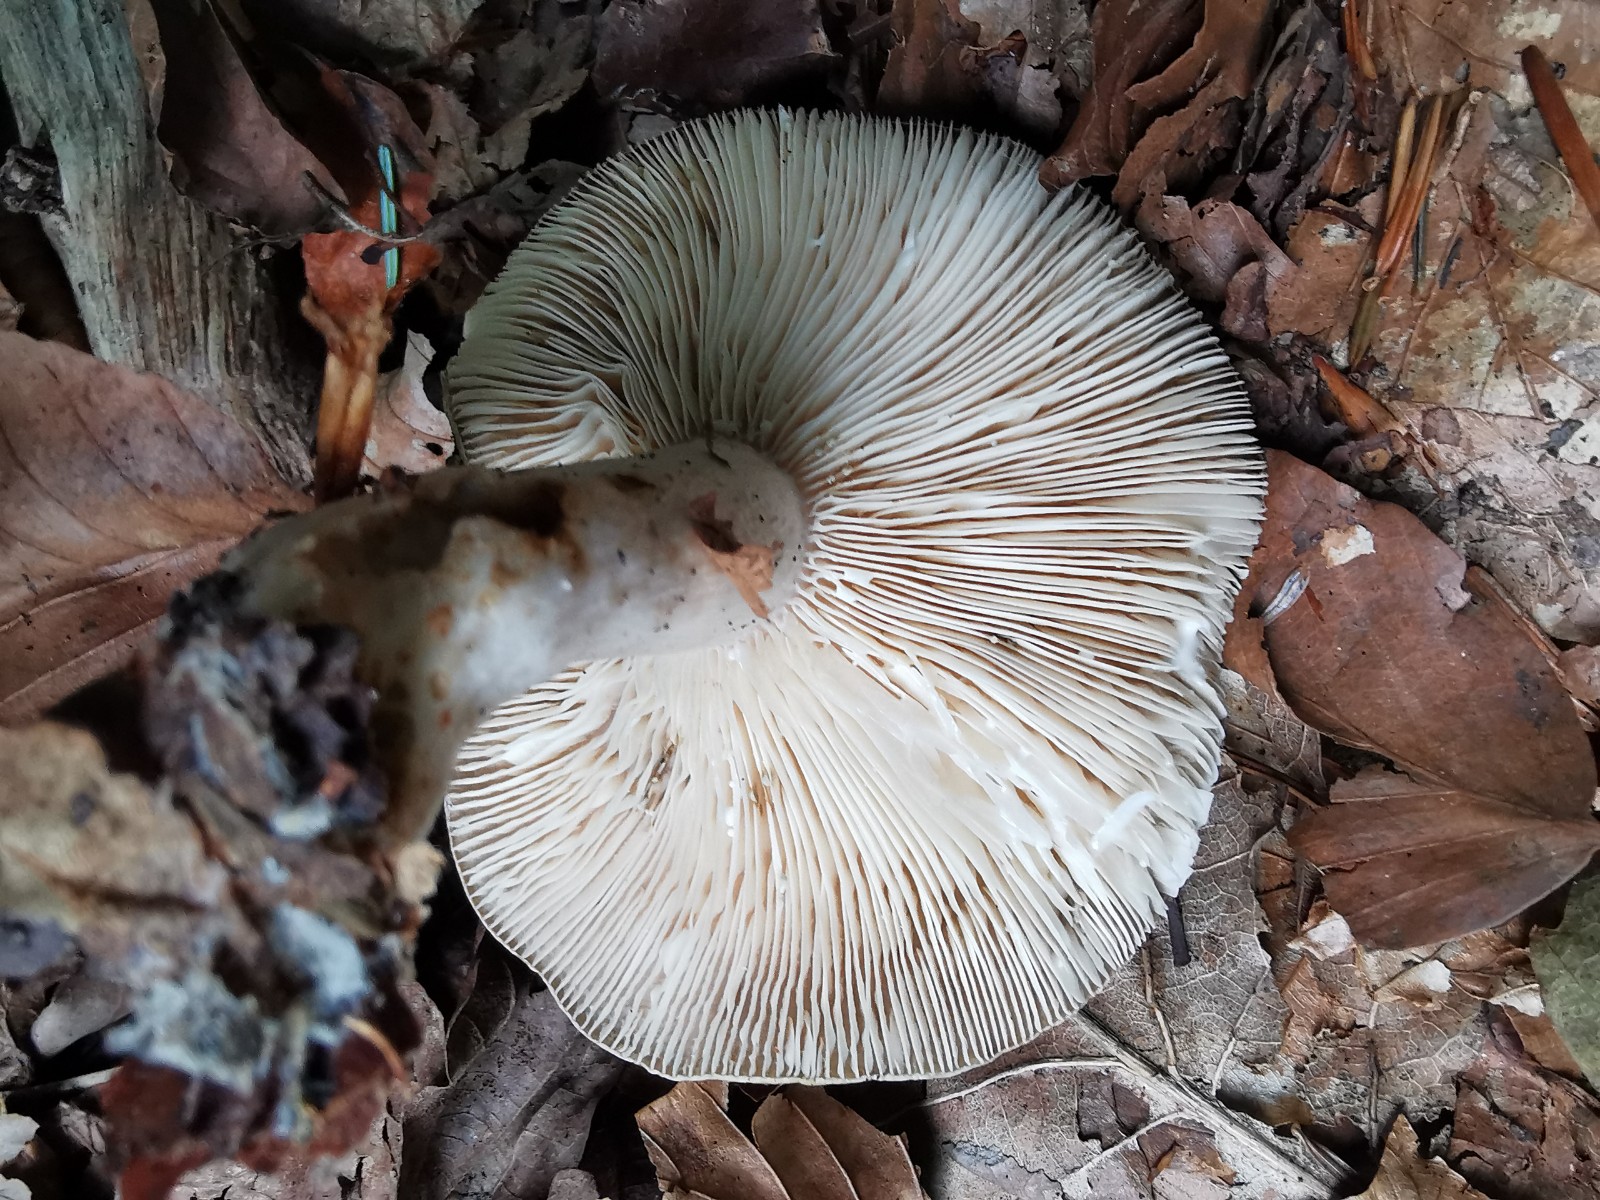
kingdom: Fungi
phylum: Basidiomycota
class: Agaricomycetes
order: Russulales
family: Russulaceae
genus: Lactarius
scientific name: Lactarius blennius
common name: dråbeplettet mælkehat
